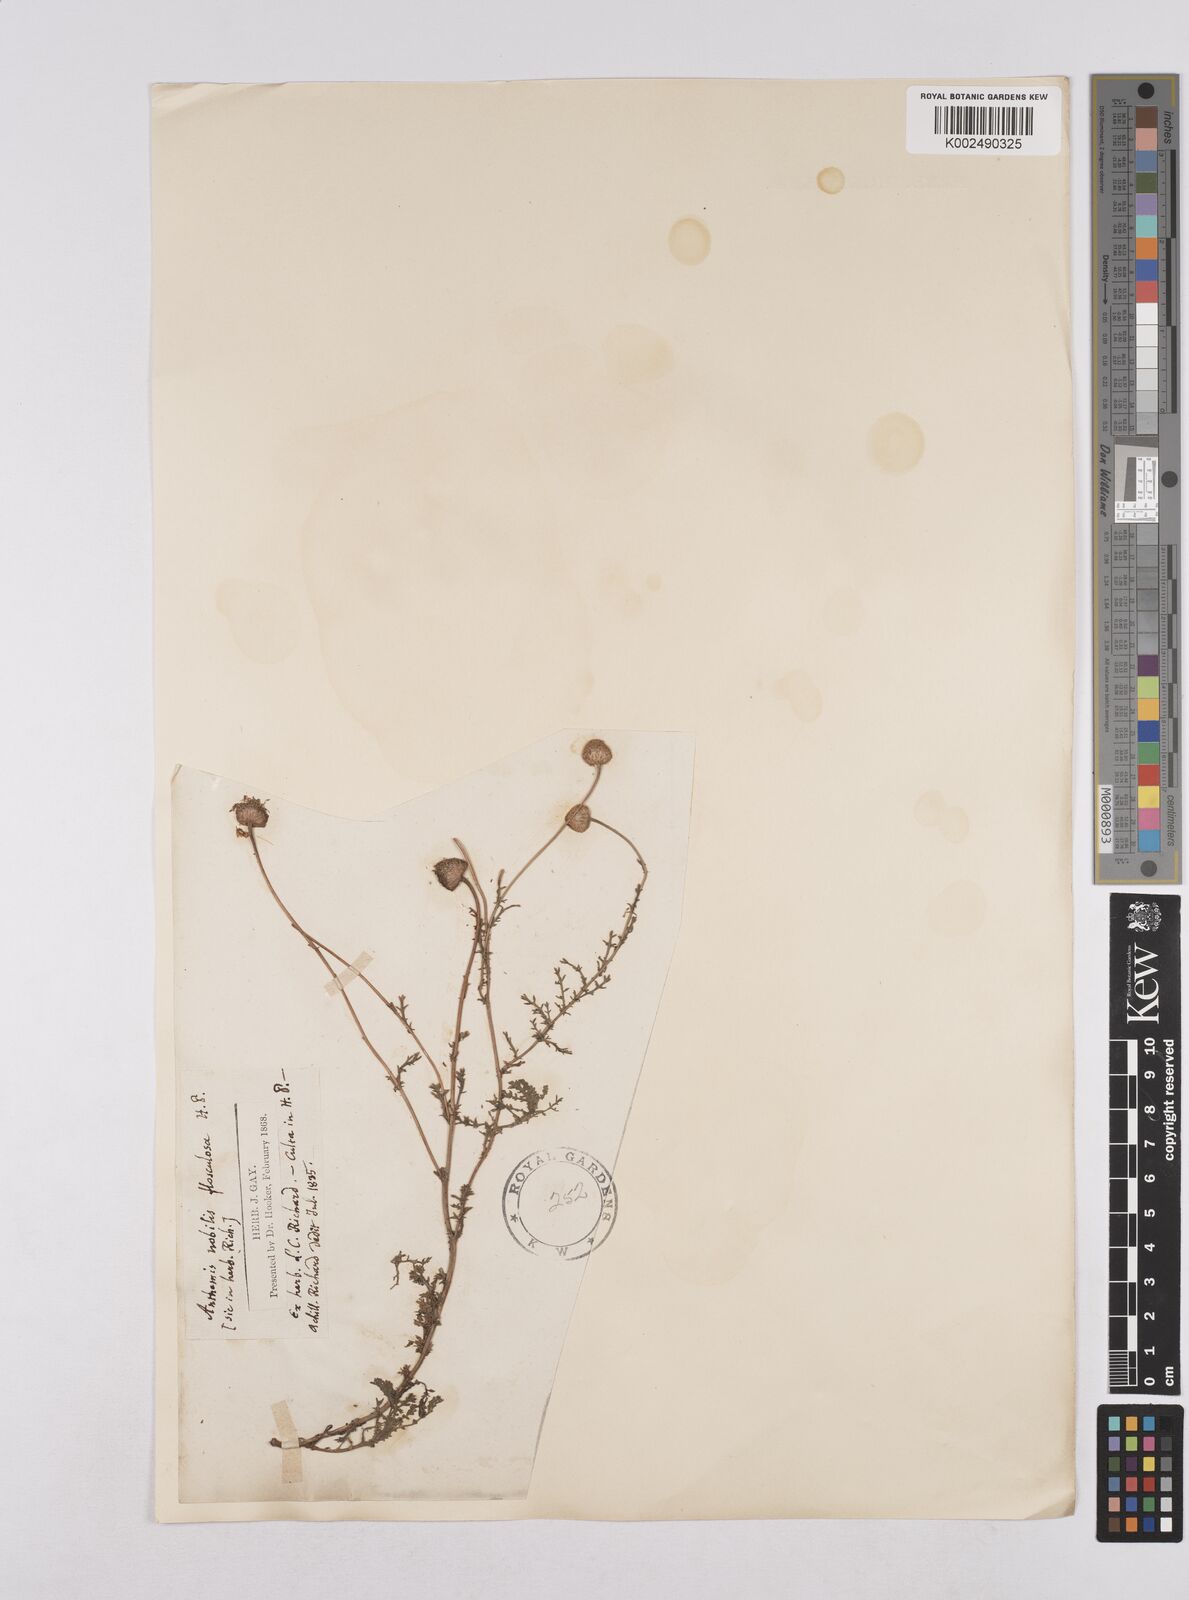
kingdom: Plantae
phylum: Tracheophyta
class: Magnoliopsida
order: Asterales
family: Asteraceae
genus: Matricaria
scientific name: Matricaria chamomilla
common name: Scented mayweed
